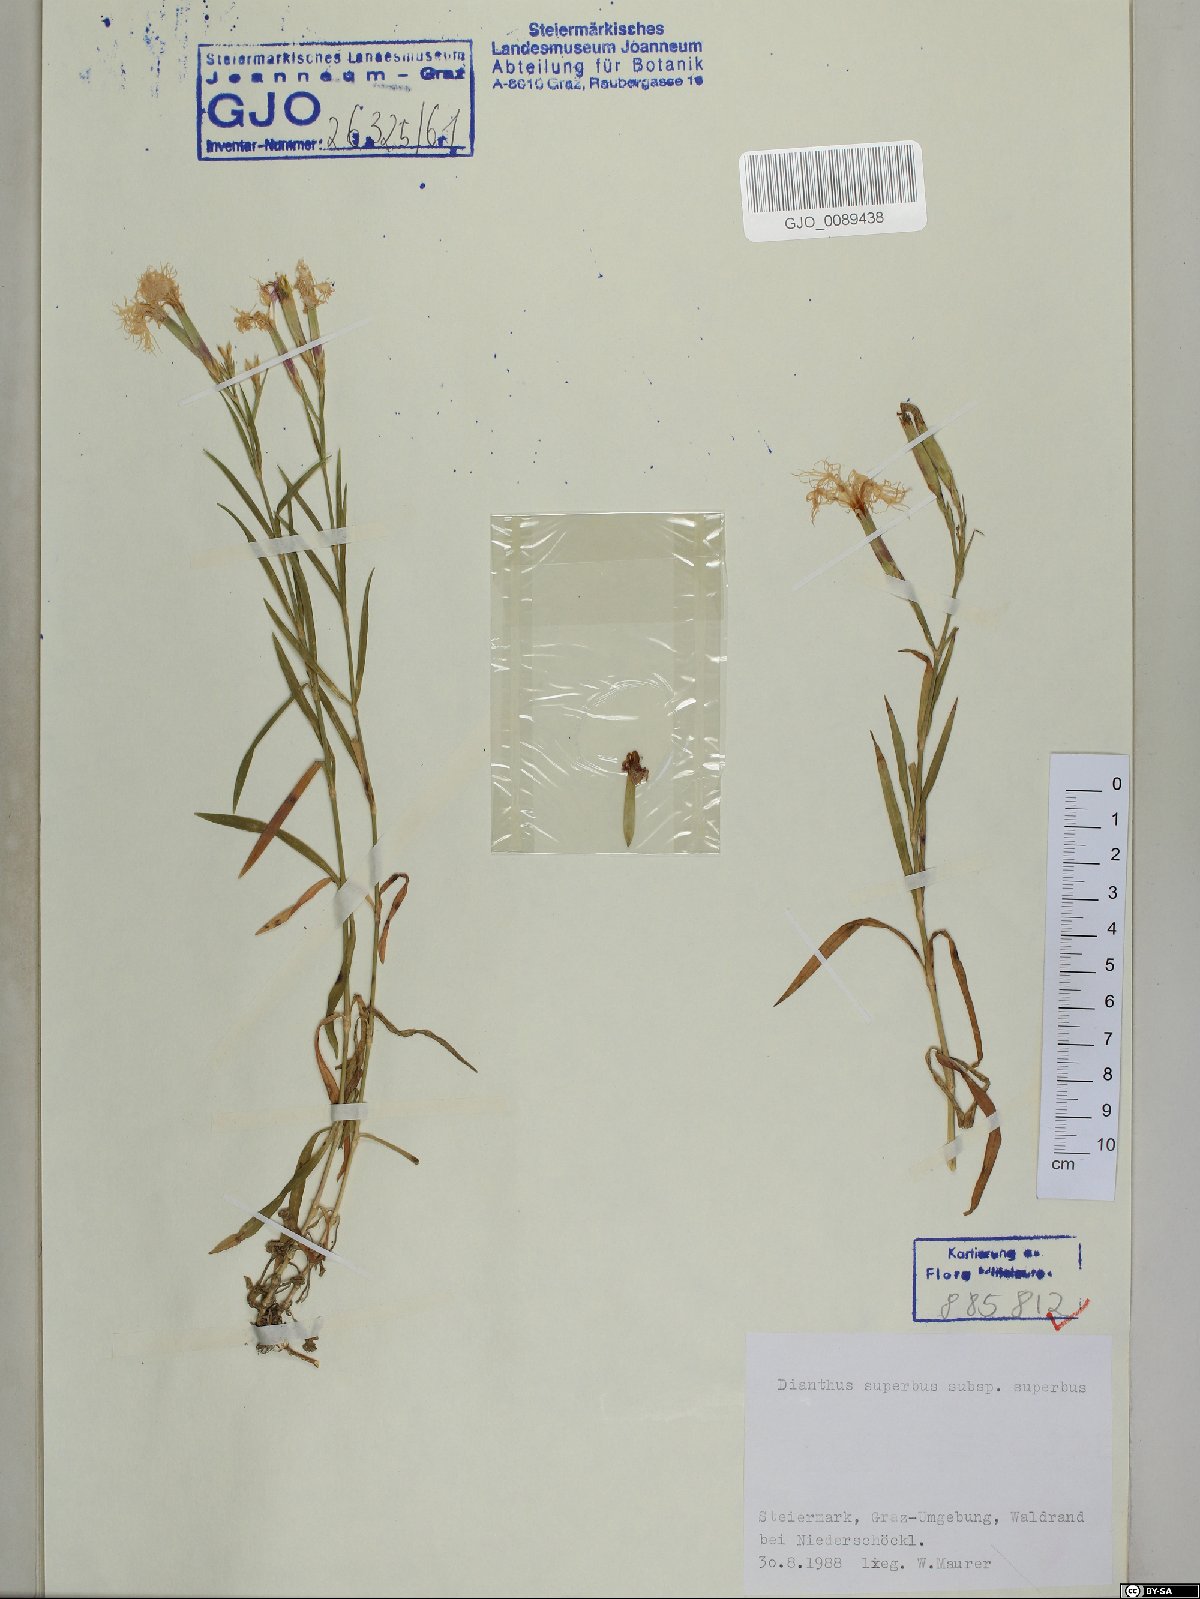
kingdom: Plantae
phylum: Tracheophyta
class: Magnoliopsida
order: Caryophyllales
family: Caryophyllaceae
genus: Dianthus
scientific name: Dianthus superbus
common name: Fringed pink
